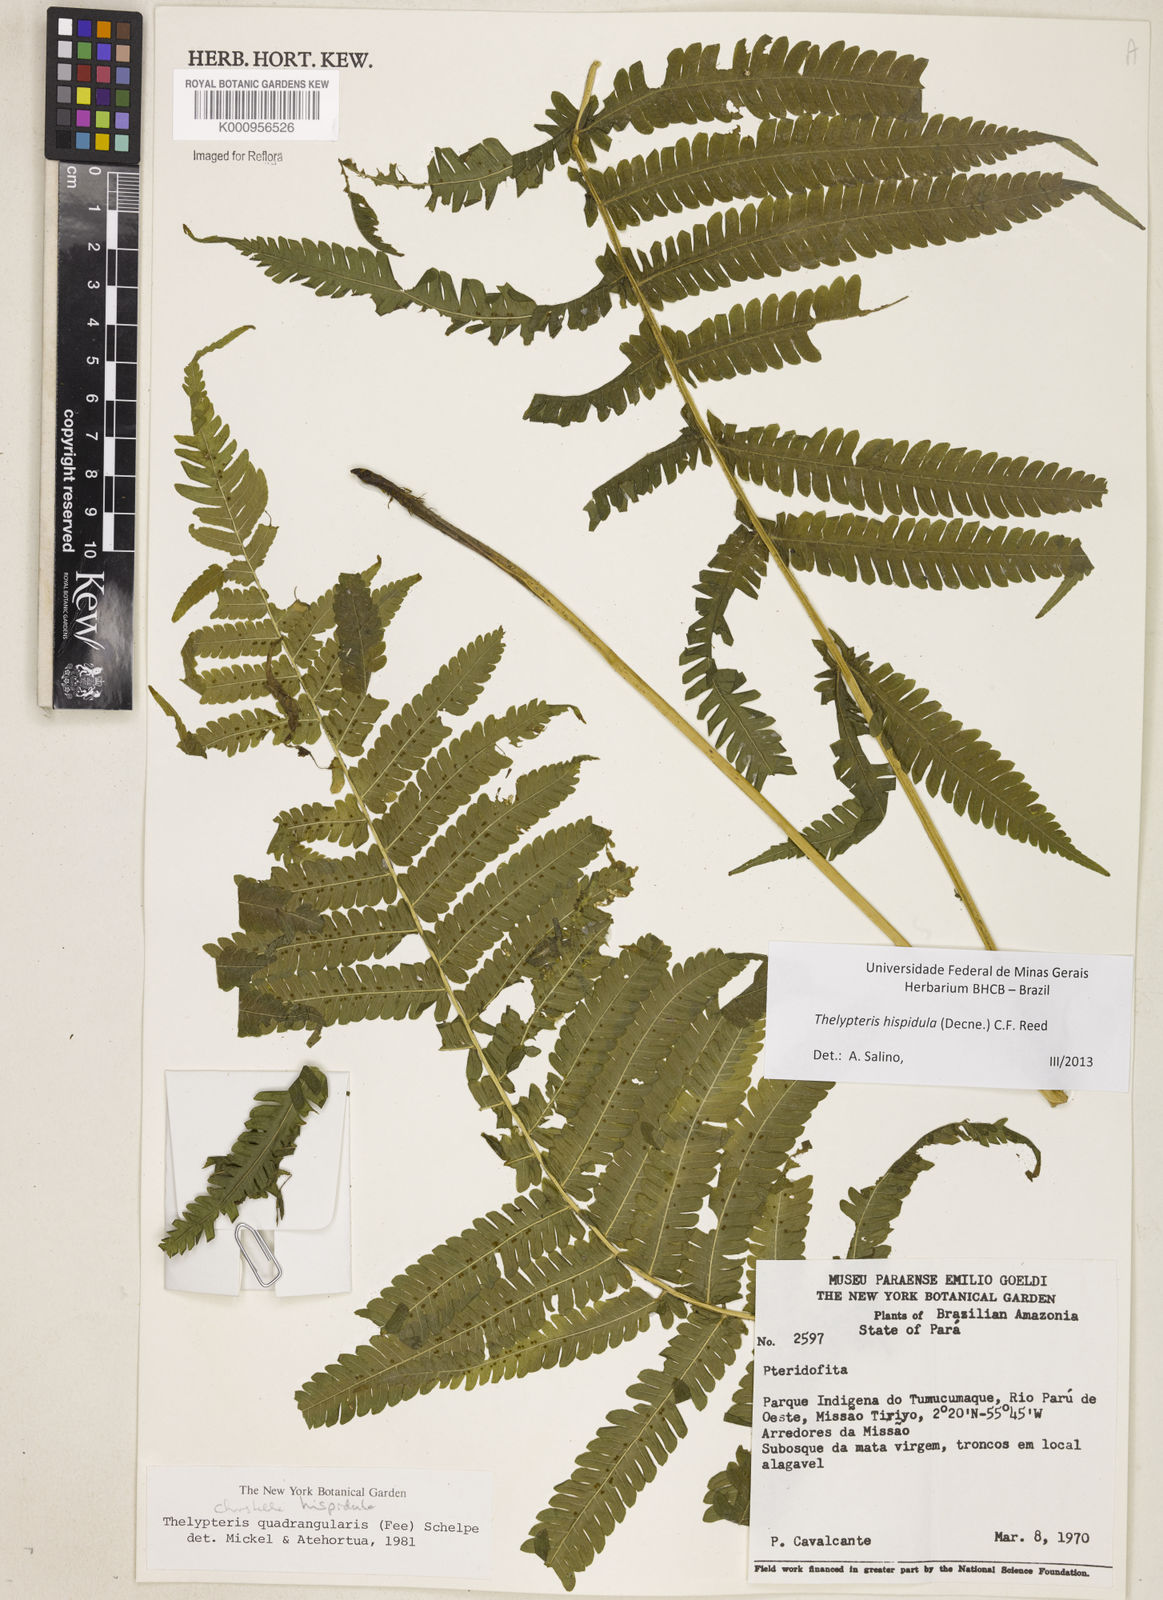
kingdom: Plantae
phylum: Tracheophyta
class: Polypodiopsida
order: Polypodiales
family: Thelypteridaceae
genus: Christella
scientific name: Christella hispidula
